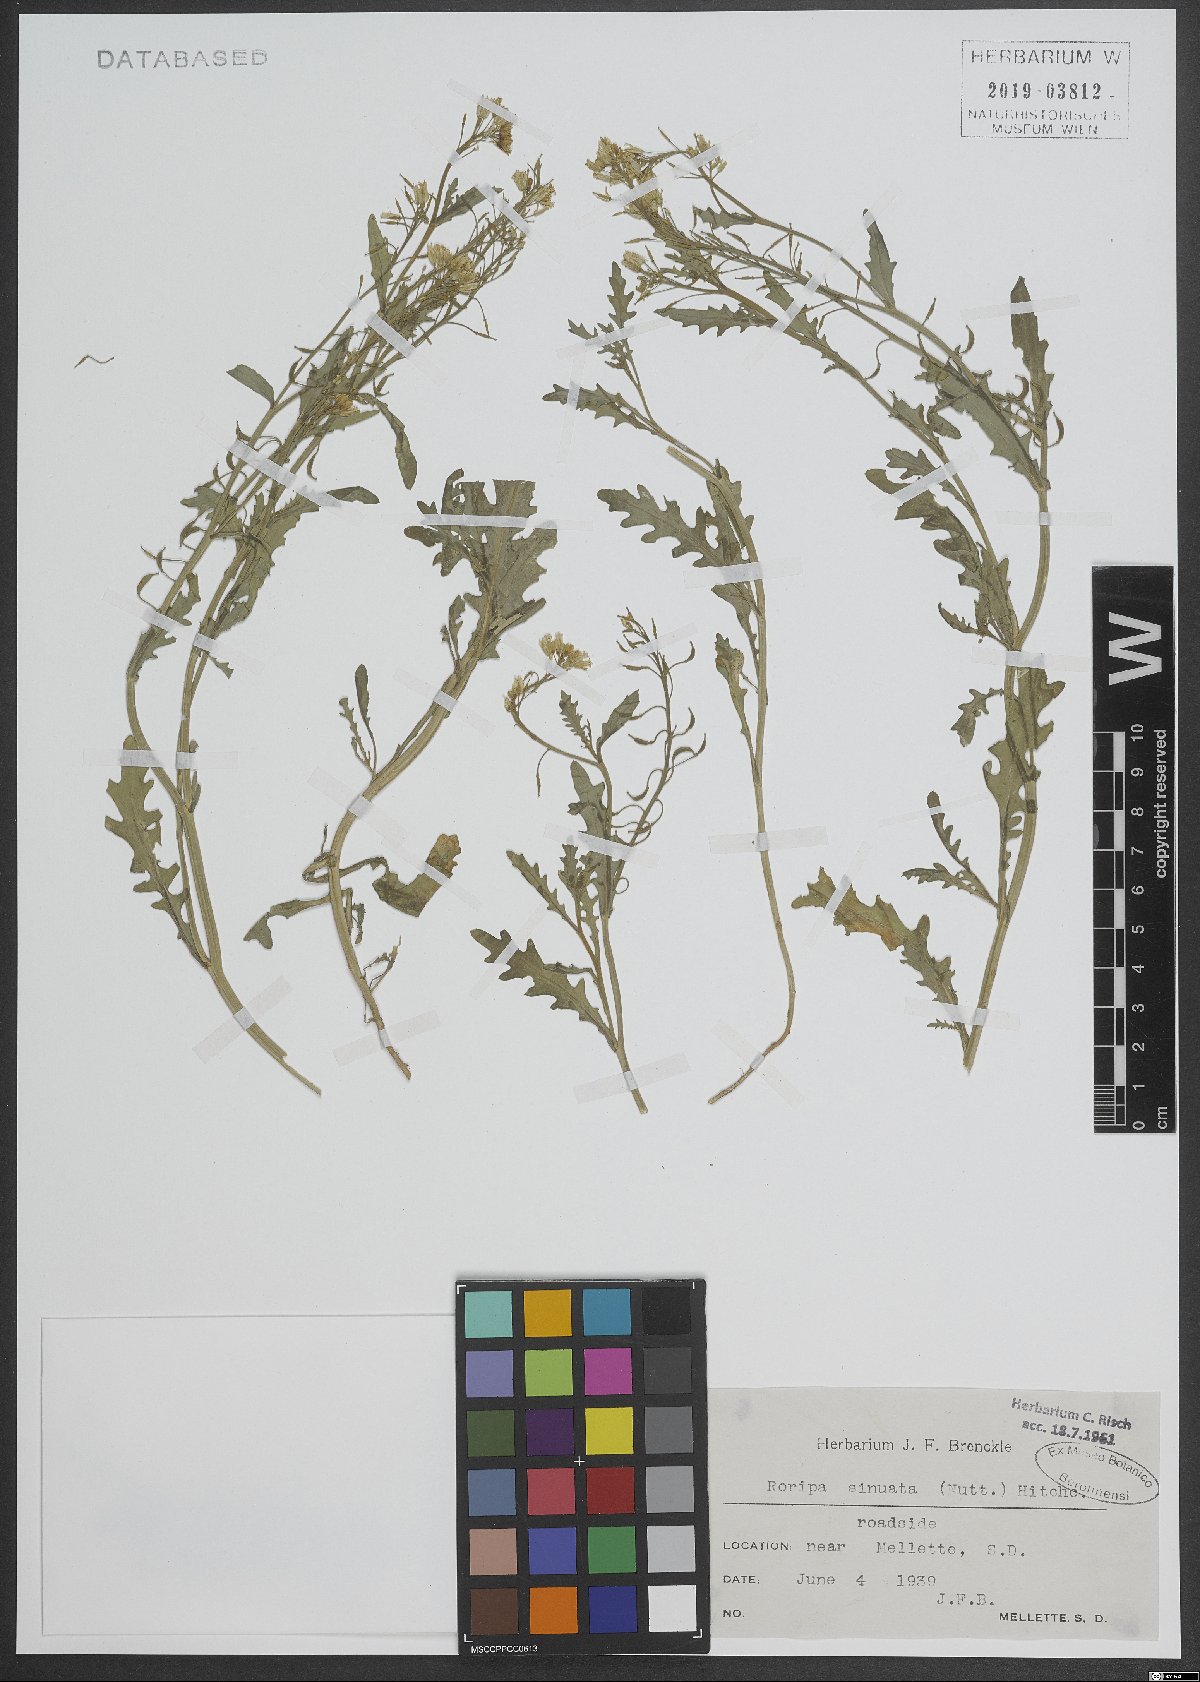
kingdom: Plantae
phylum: Tracheophyta
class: Magnoliopsida
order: Brassicales
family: Brassicaceae
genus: Rorippa
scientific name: Rorippa sinuata
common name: Spread yellow cress
